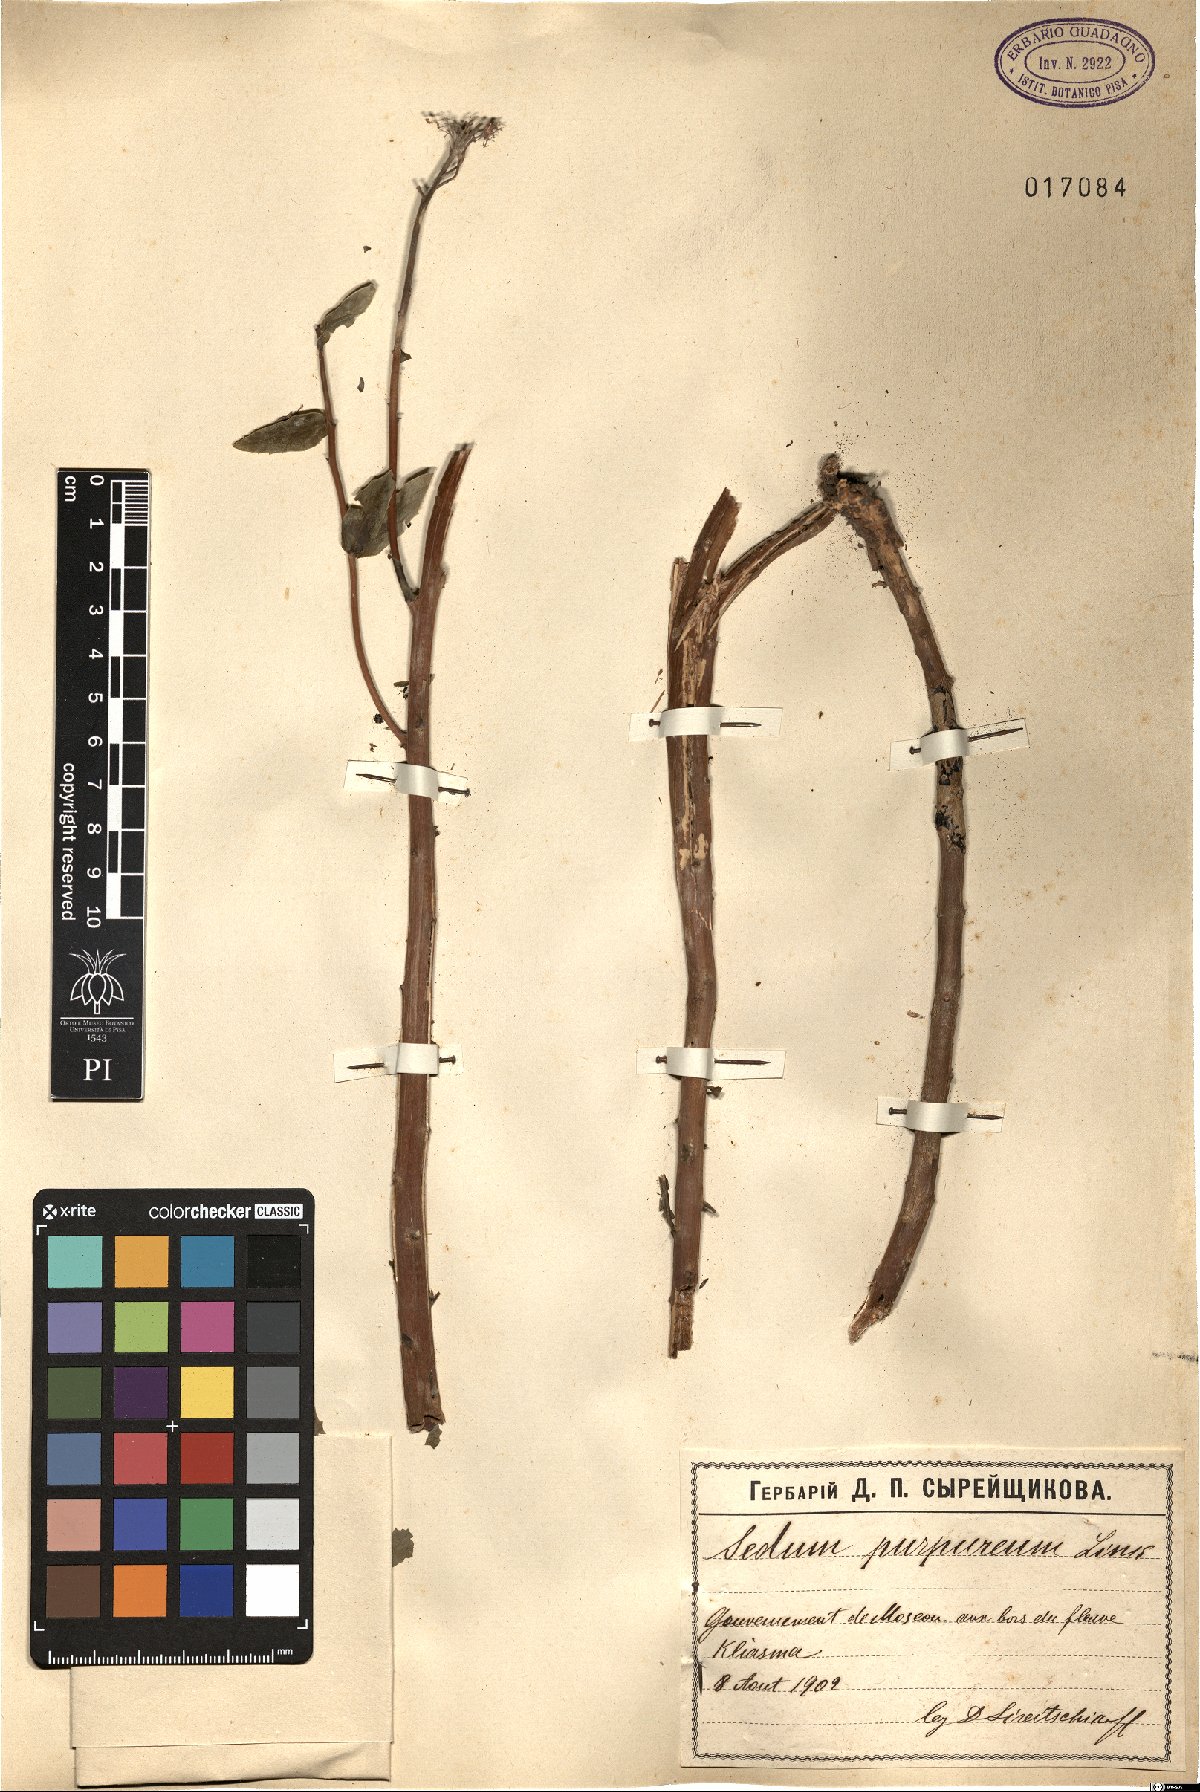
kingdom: Plantae
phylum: Tracheophyta
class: Magnoliopsida
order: Saxifragales
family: Crassulaceae
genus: Hylotelephium
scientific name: Hylotelephium telephium
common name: Live-forever
